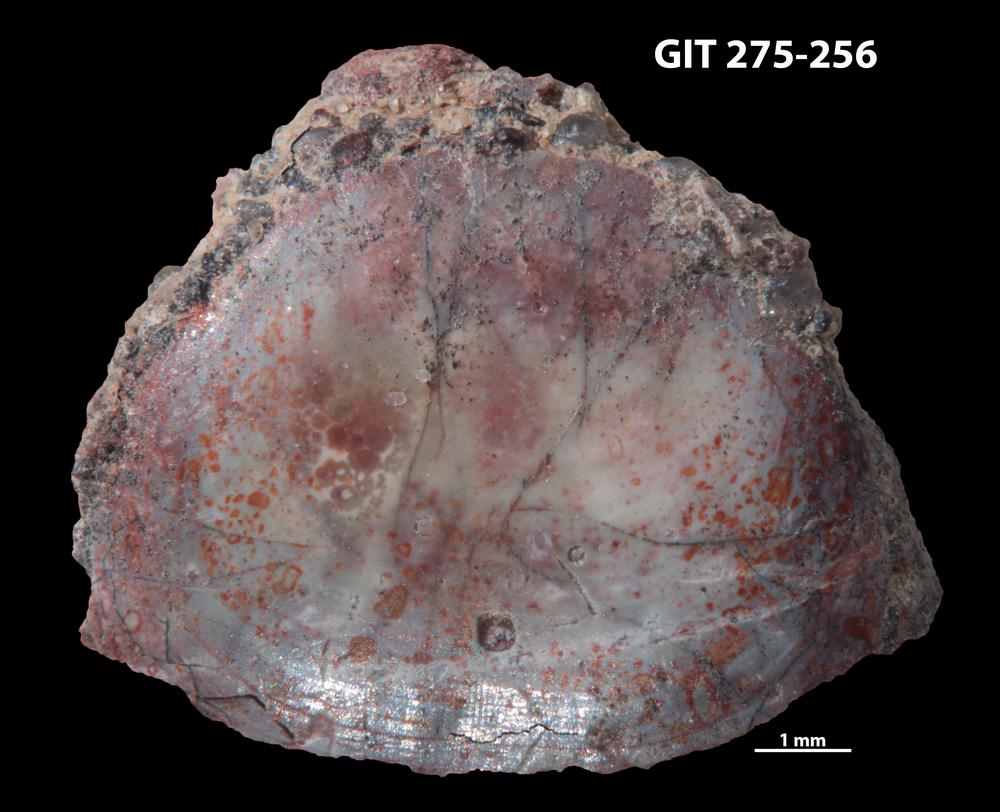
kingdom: Animalia
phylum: Brachiopoda
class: Lingulata
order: Lingulida
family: Obolidae
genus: Obolus
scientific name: Obolus Ungula convexa
